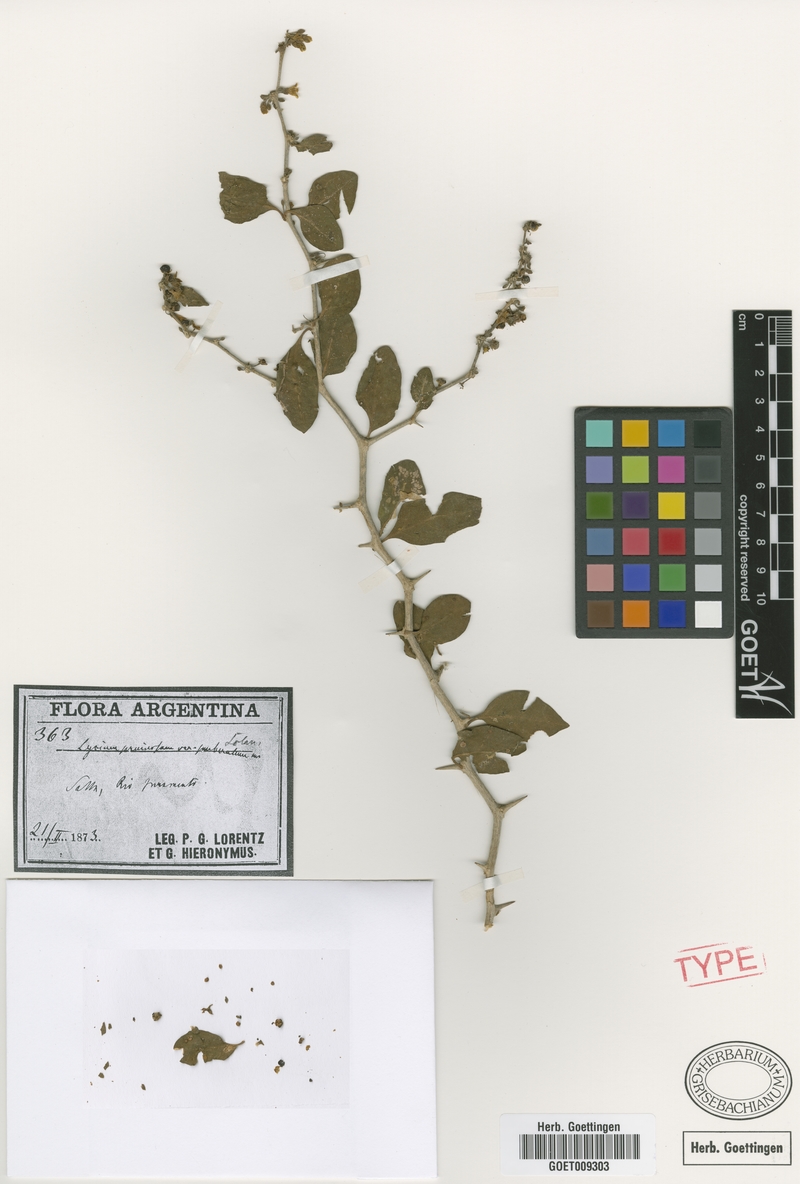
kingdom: Plantae
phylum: Tracheophyta
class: Magnoliopsida
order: Solanales
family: Solanaceae
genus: Lycium
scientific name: Lycium cuneatum
